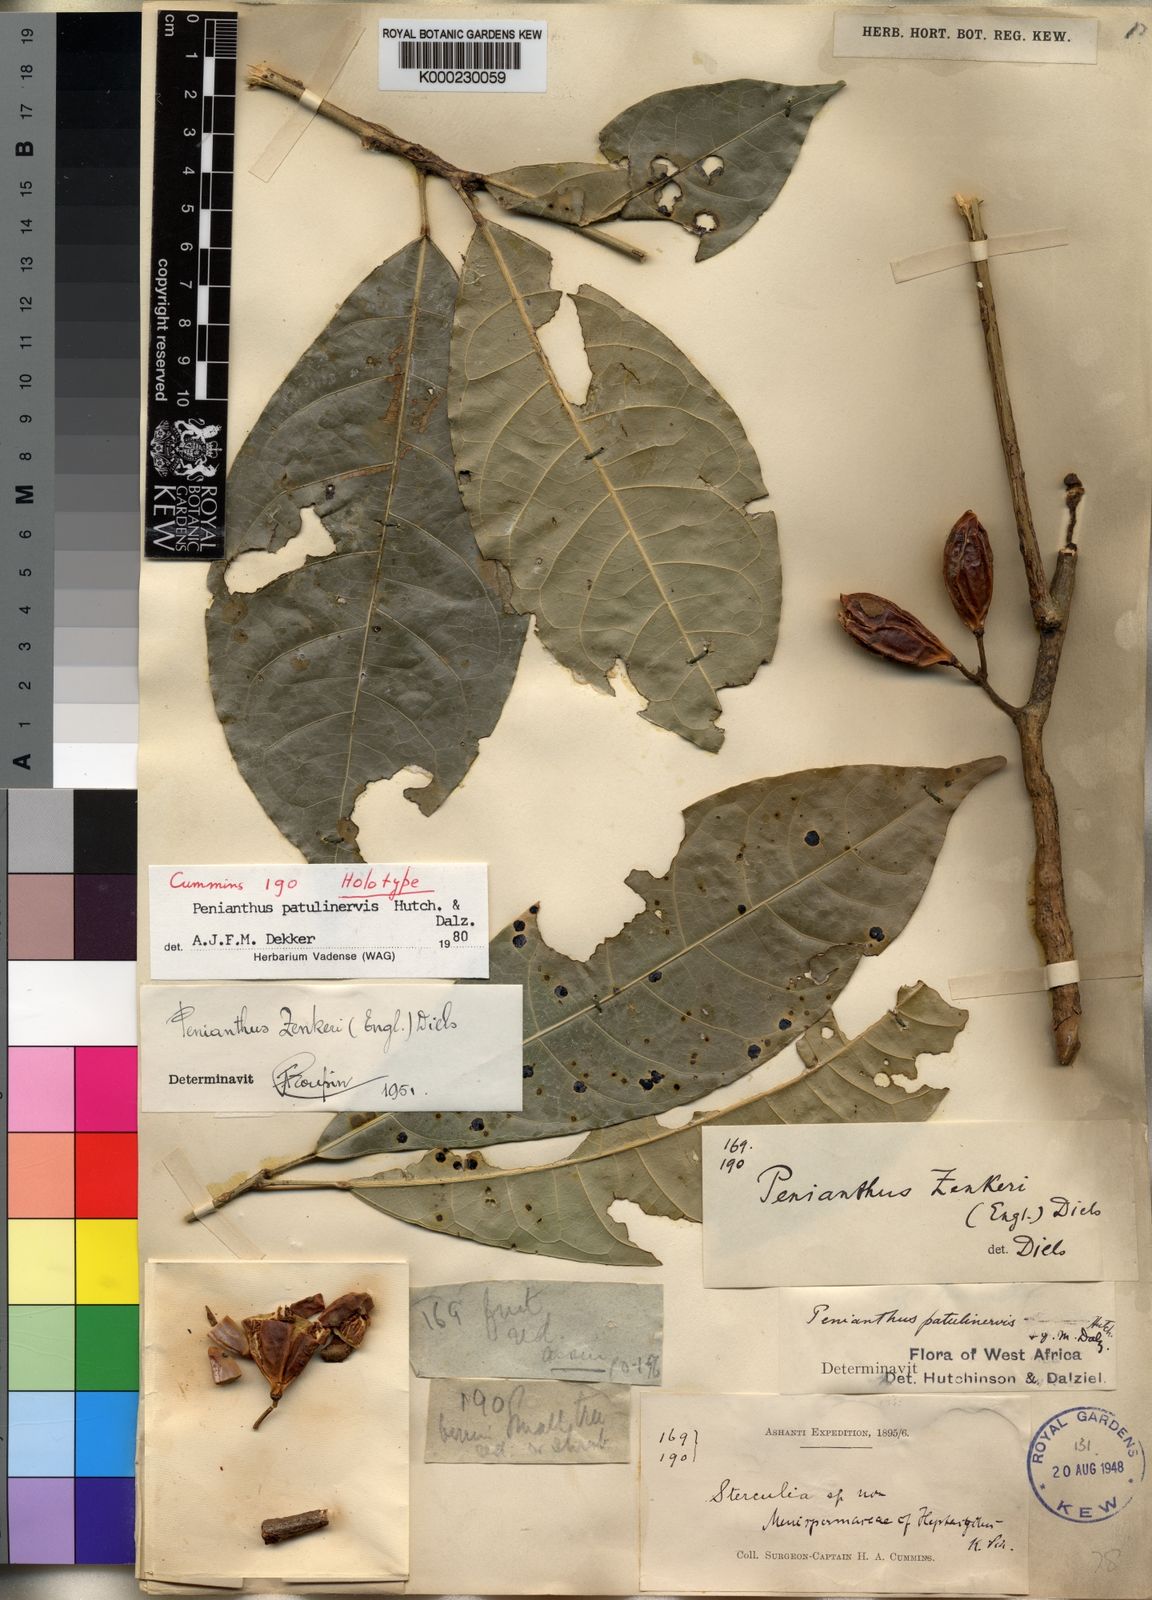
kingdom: Plantae
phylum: Tracheophyta
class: Magnoliopsida
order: Malvales
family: Malvaceae
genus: Sterculia
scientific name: Sterculia
